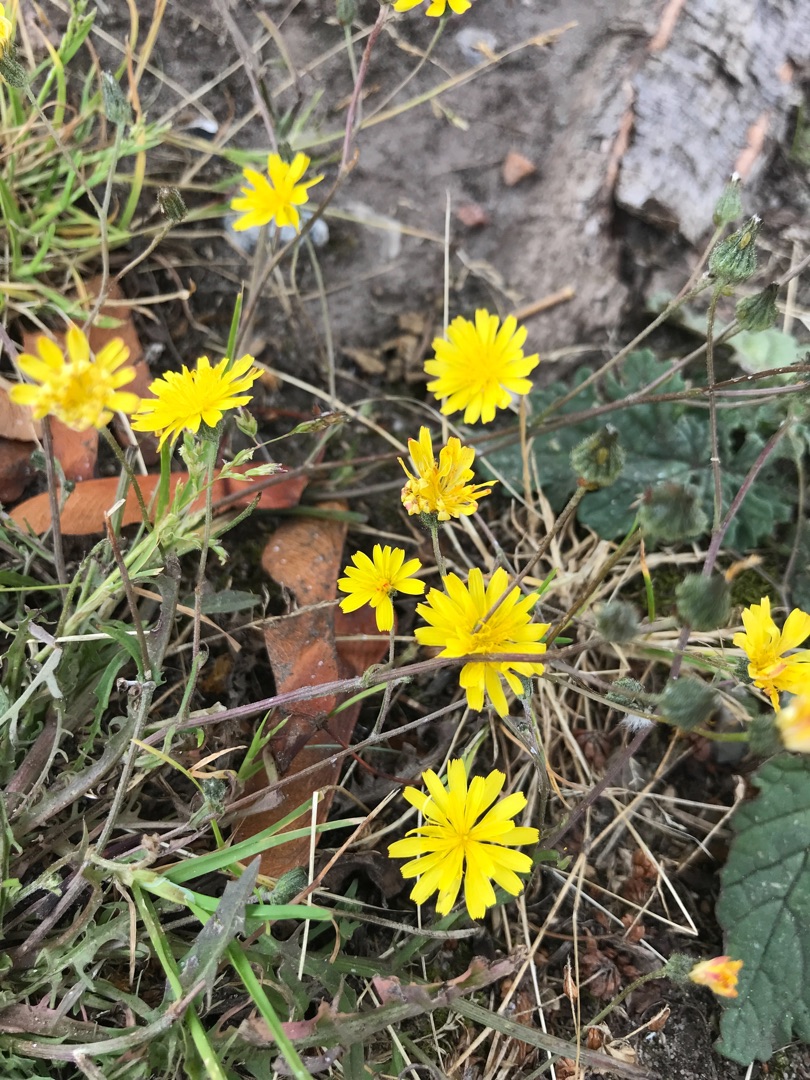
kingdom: Plantae
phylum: Tracheophyta
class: Magnoliopsida
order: Asterales
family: Asteraceae
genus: Crepis
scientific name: Crepis capillaris
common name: Grøn høgeskæg
